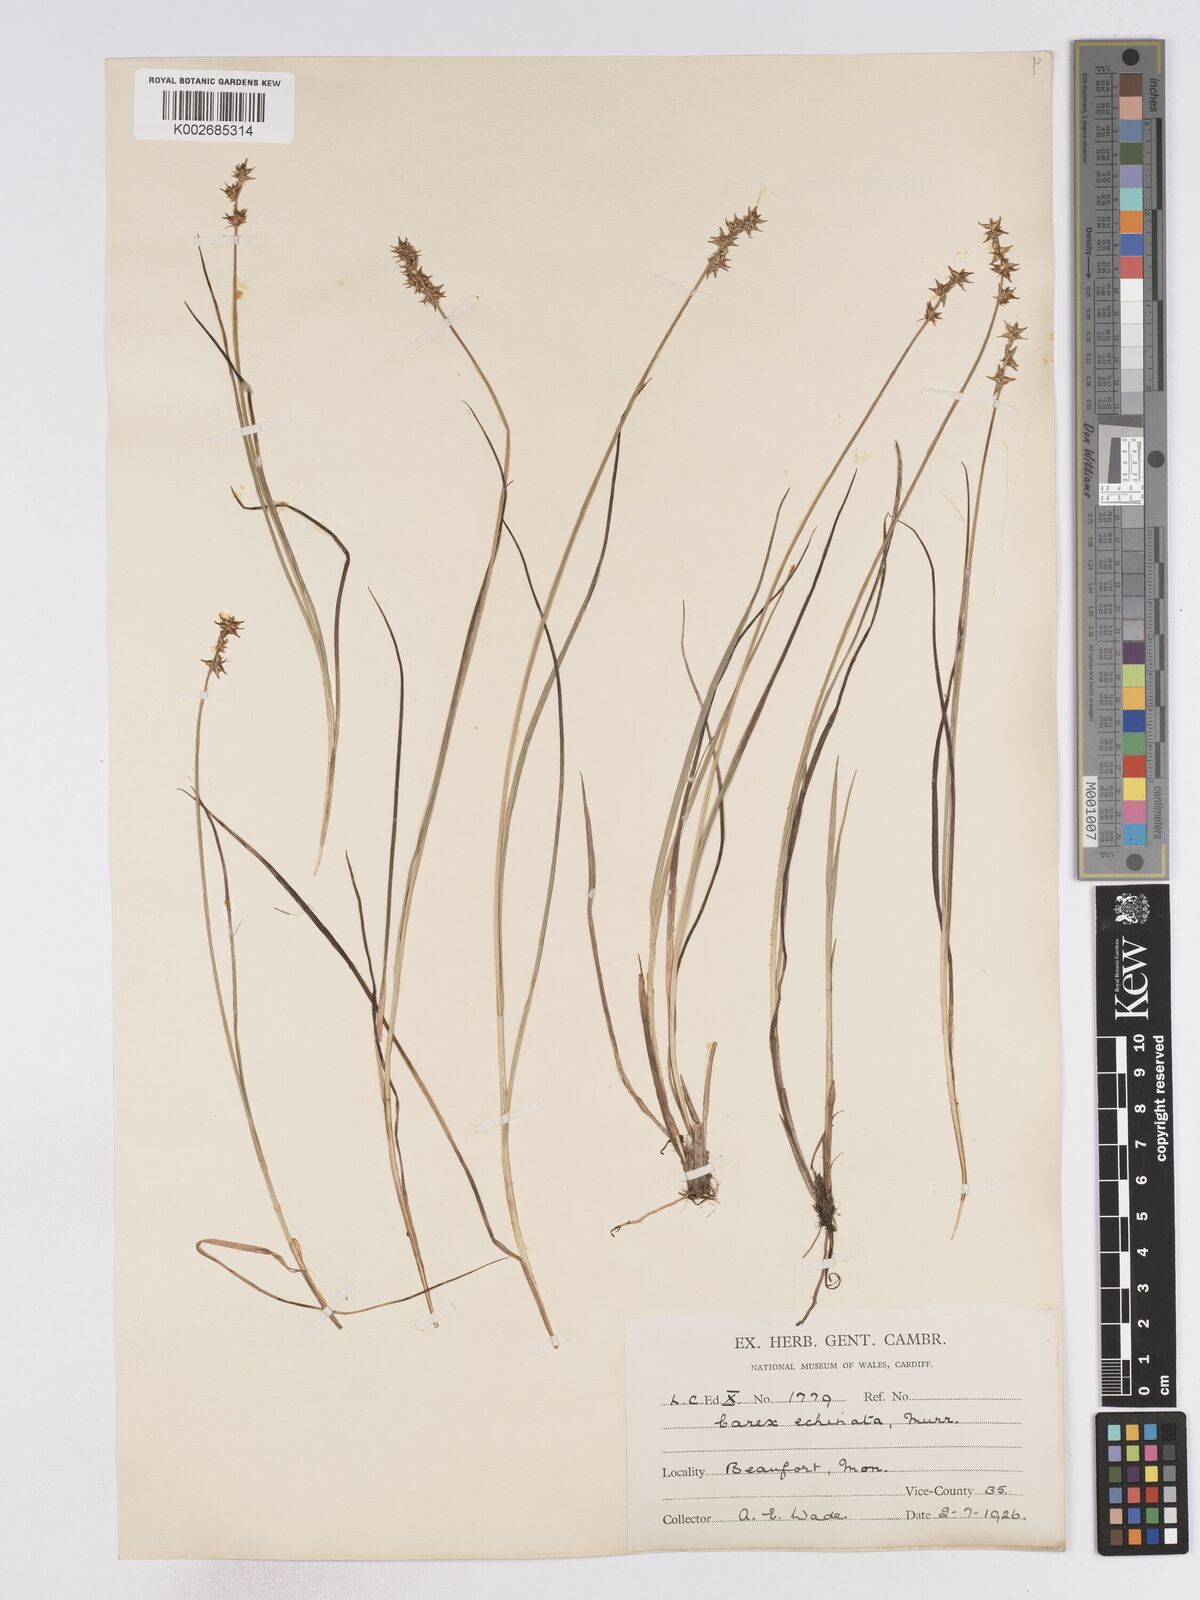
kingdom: Plantae
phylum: Tracheophyta
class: Liliopsida
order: Poales
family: Cyperaceae
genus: Carex
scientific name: Carex echinata
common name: Star sedge
